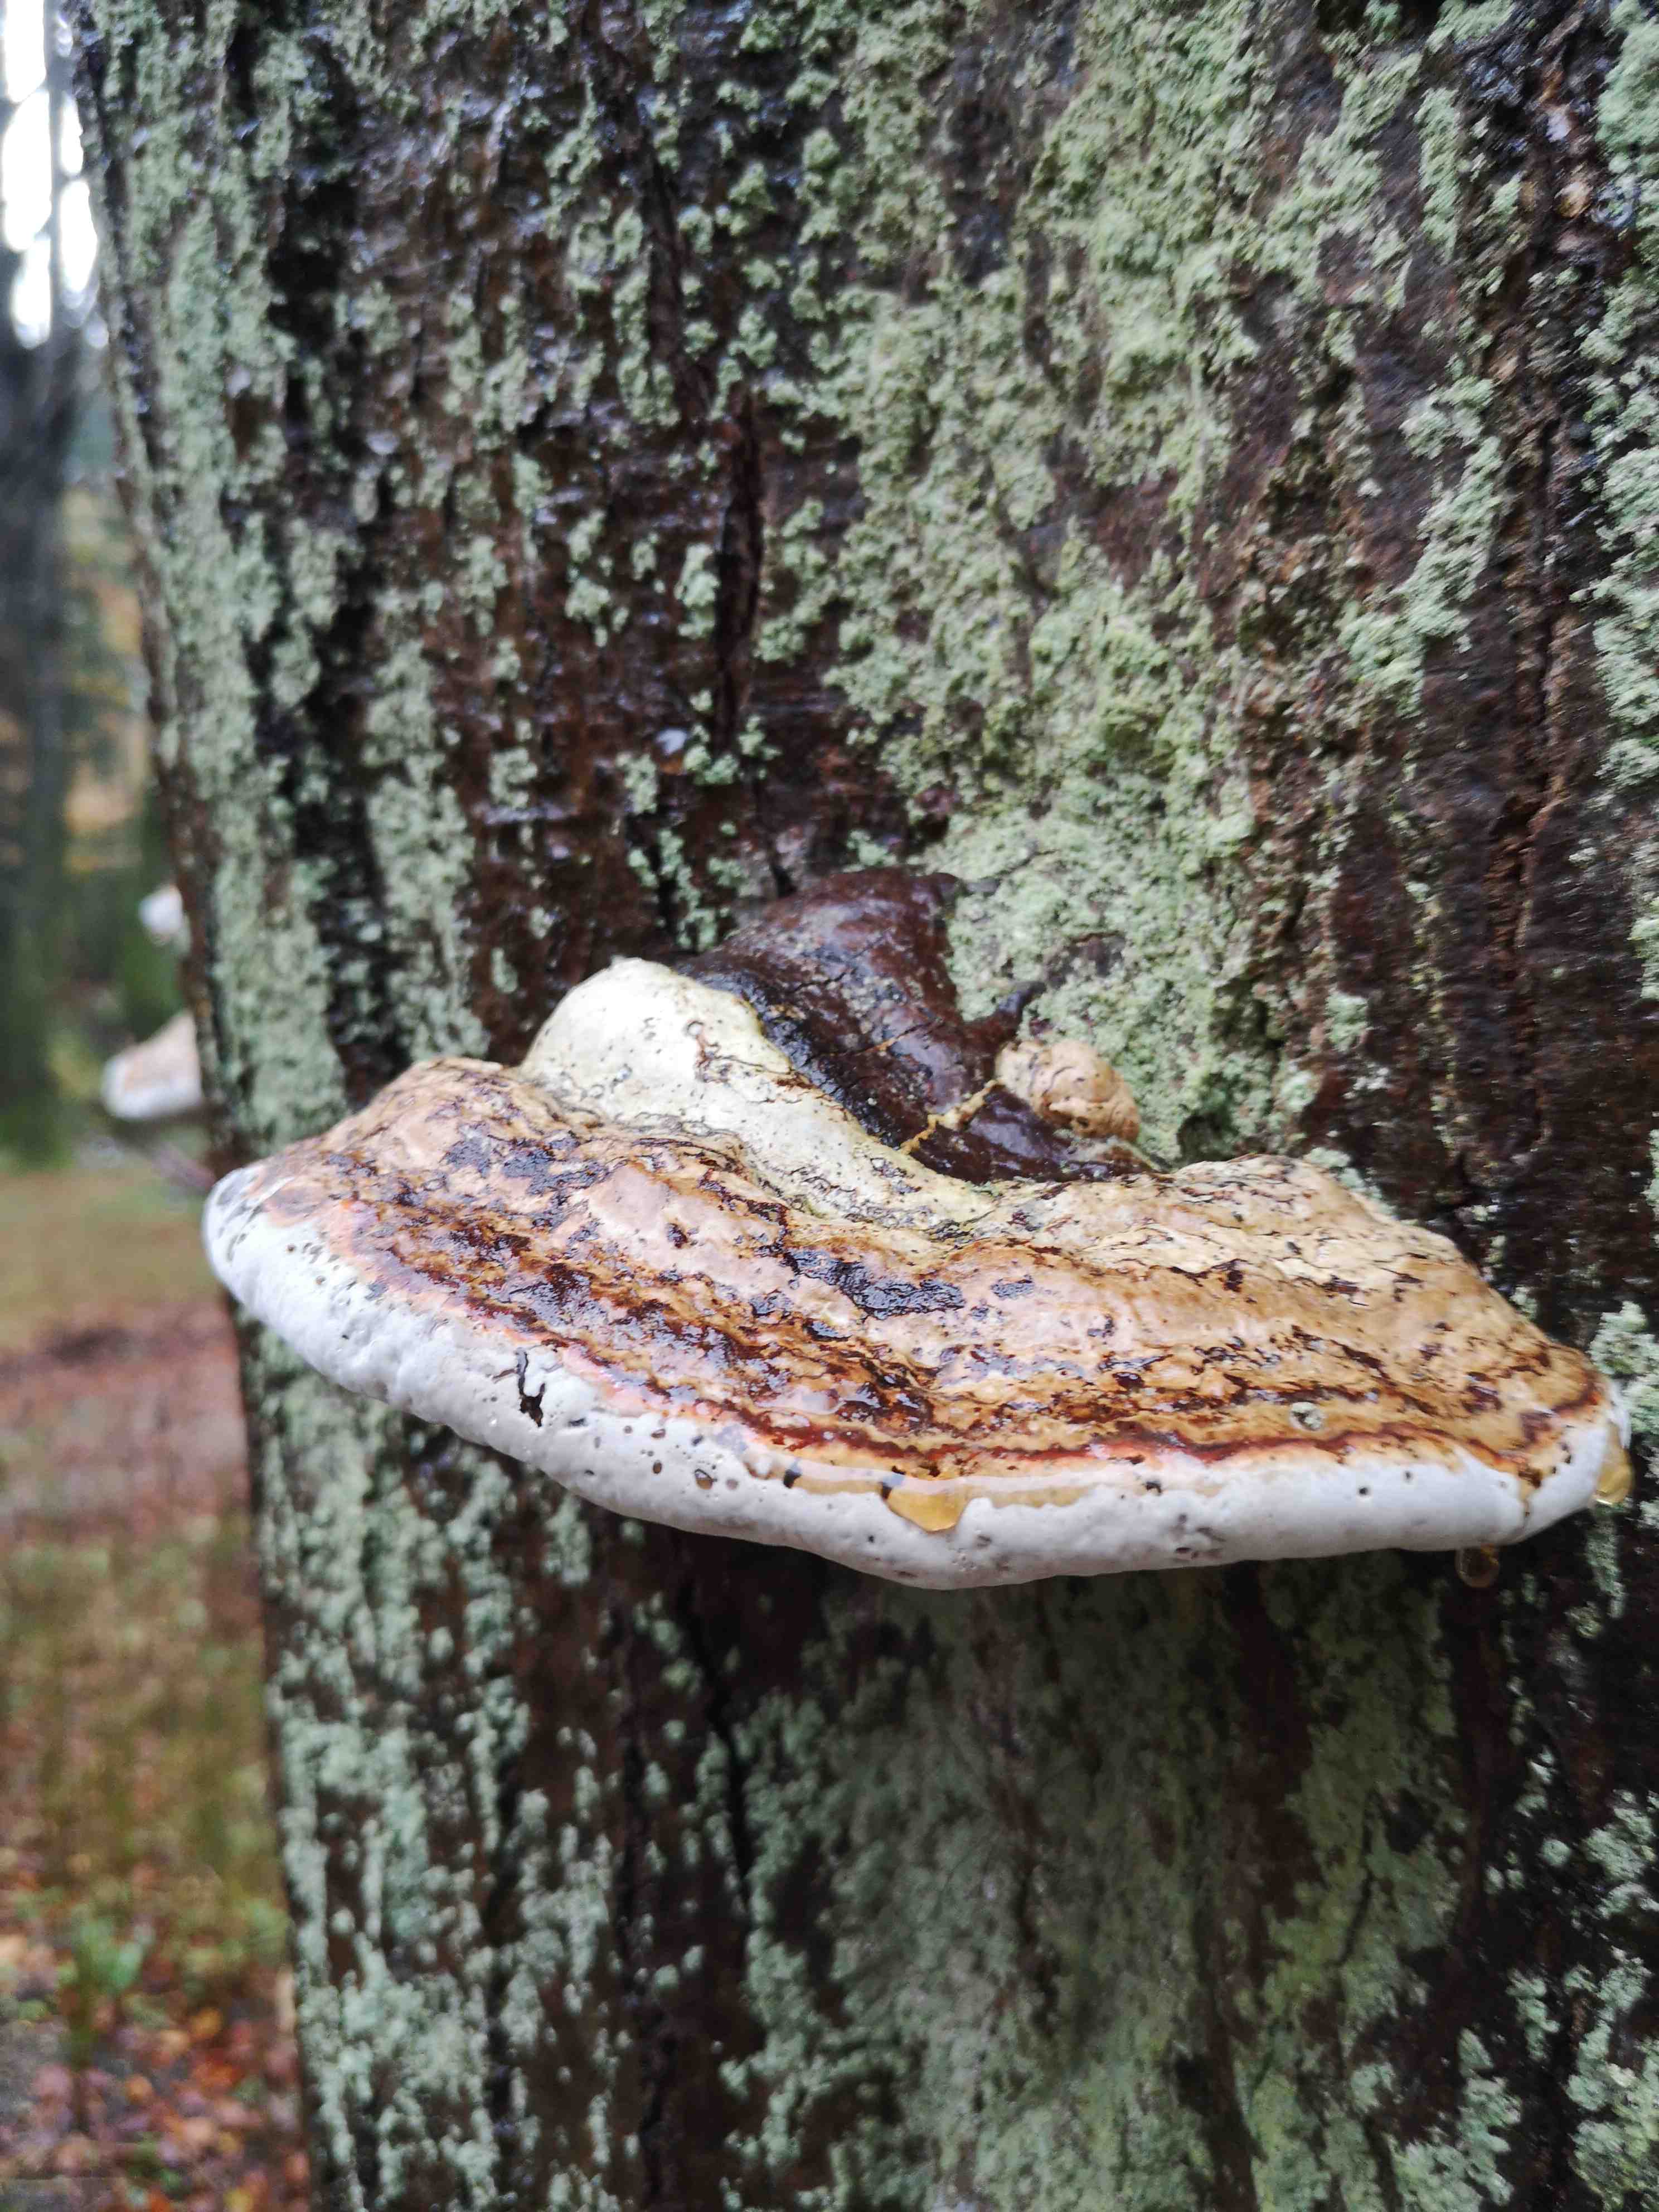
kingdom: Fungi
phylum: Basidiomycota
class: Agaricomycetes
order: Polyporales
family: Polyporaceae
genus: Fomes
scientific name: Fomes fomentarius
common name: tøndersvamp
